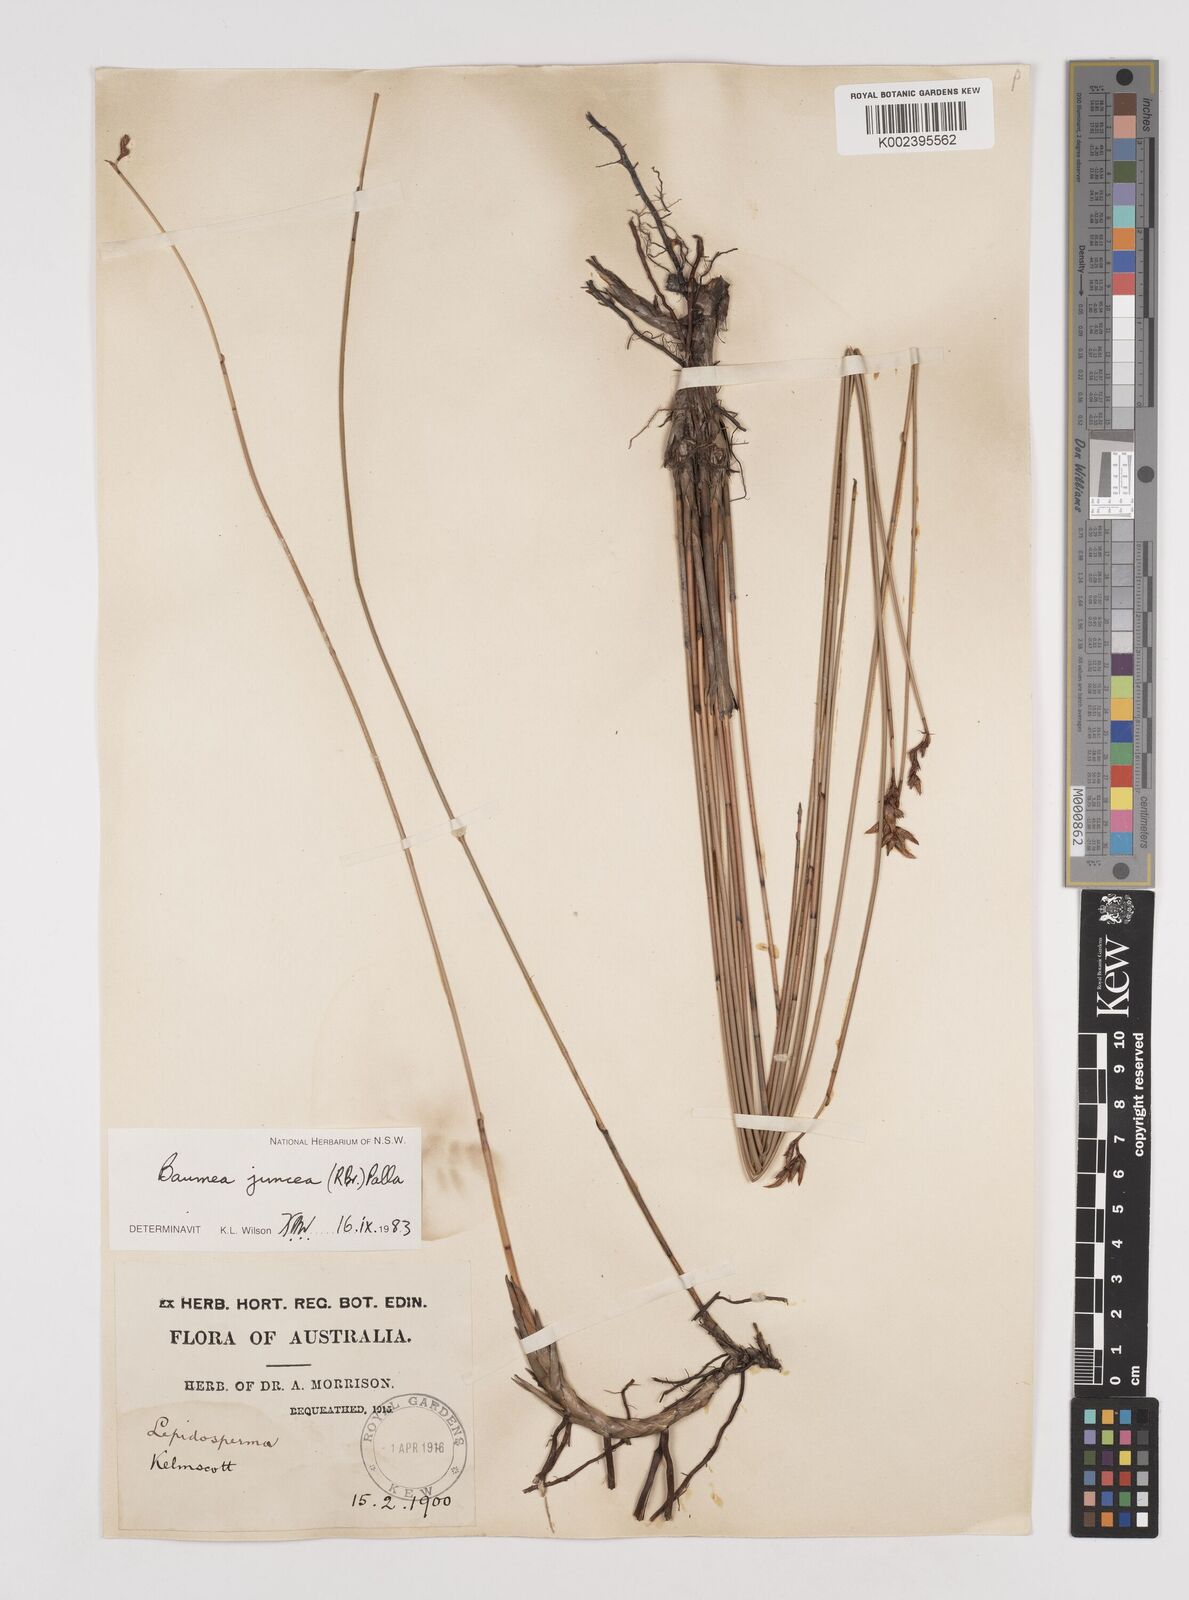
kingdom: Plantae
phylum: Tracheophyta
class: Liliopsida
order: Poales
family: Cyperaceae
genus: Machaerina
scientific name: Machaerina juncea
